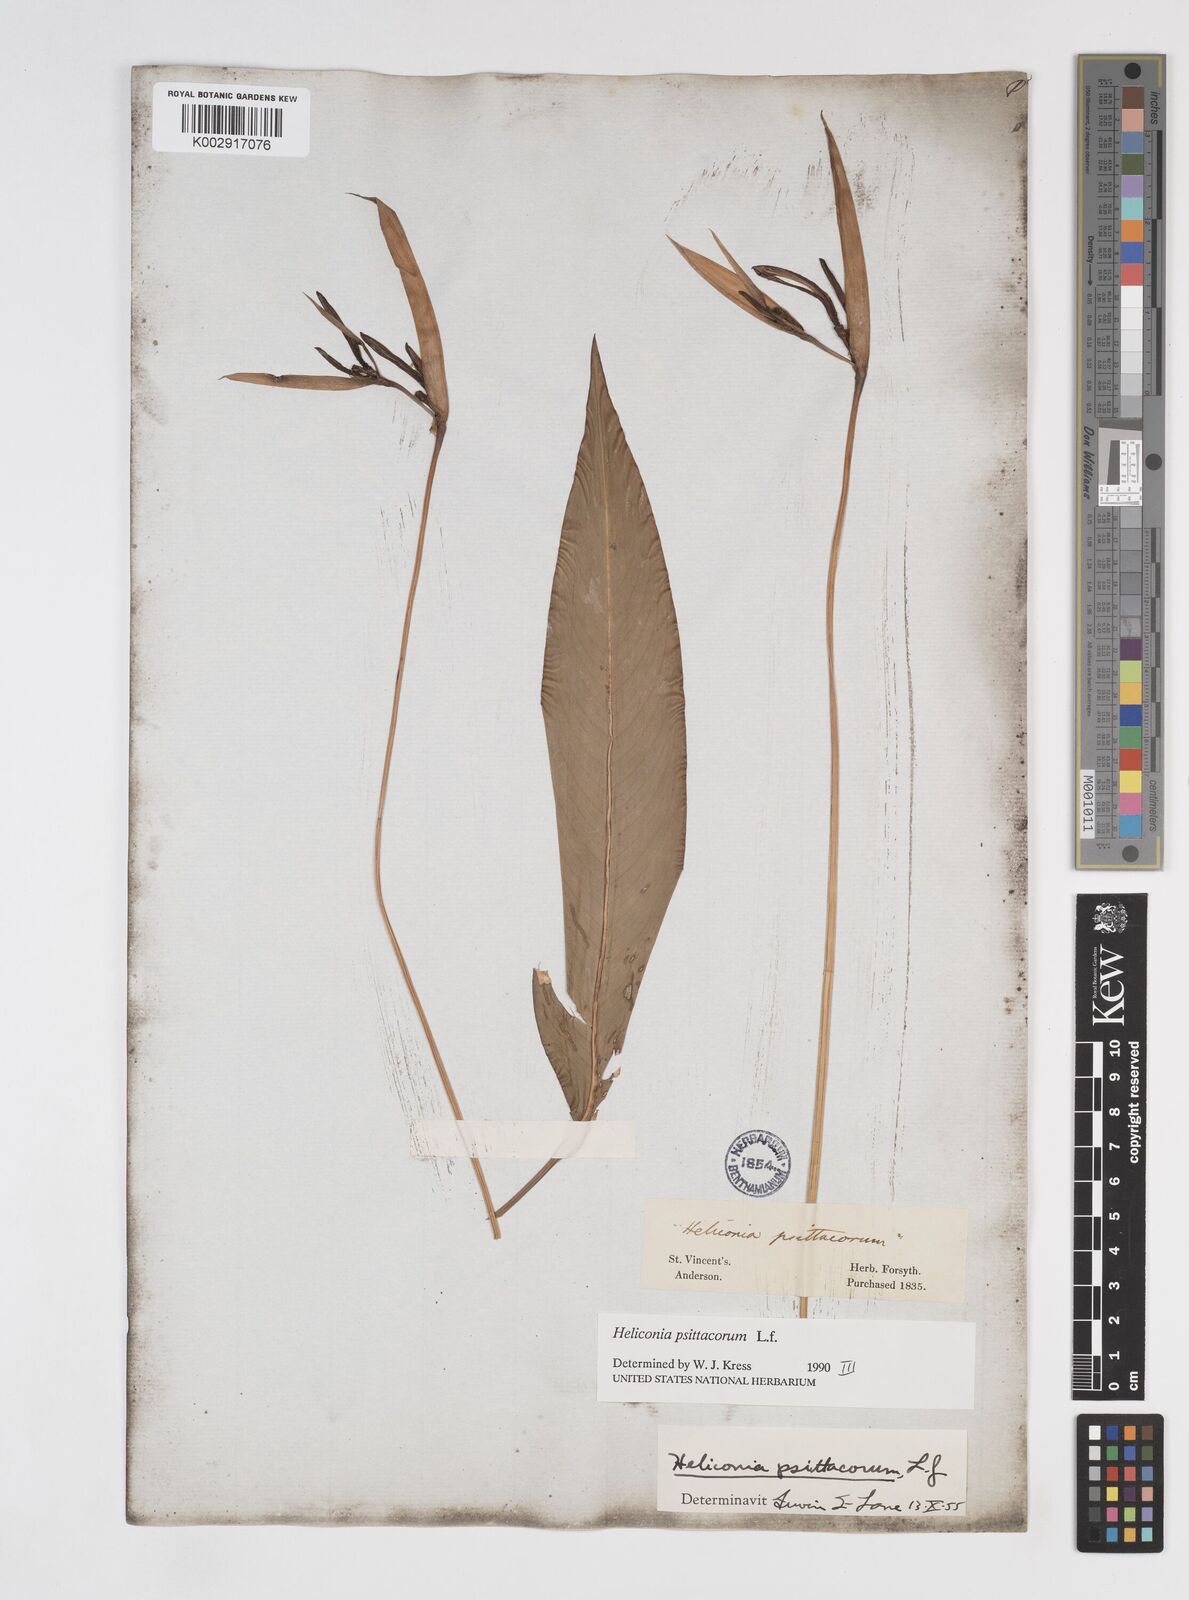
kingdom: Plantae
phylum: Tracheophyta
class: Liliopsida
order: Zingiberales
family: Heliconiaceae
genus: Heliconia
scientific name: Heliconia psittacorum
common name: Parrot's-flower
